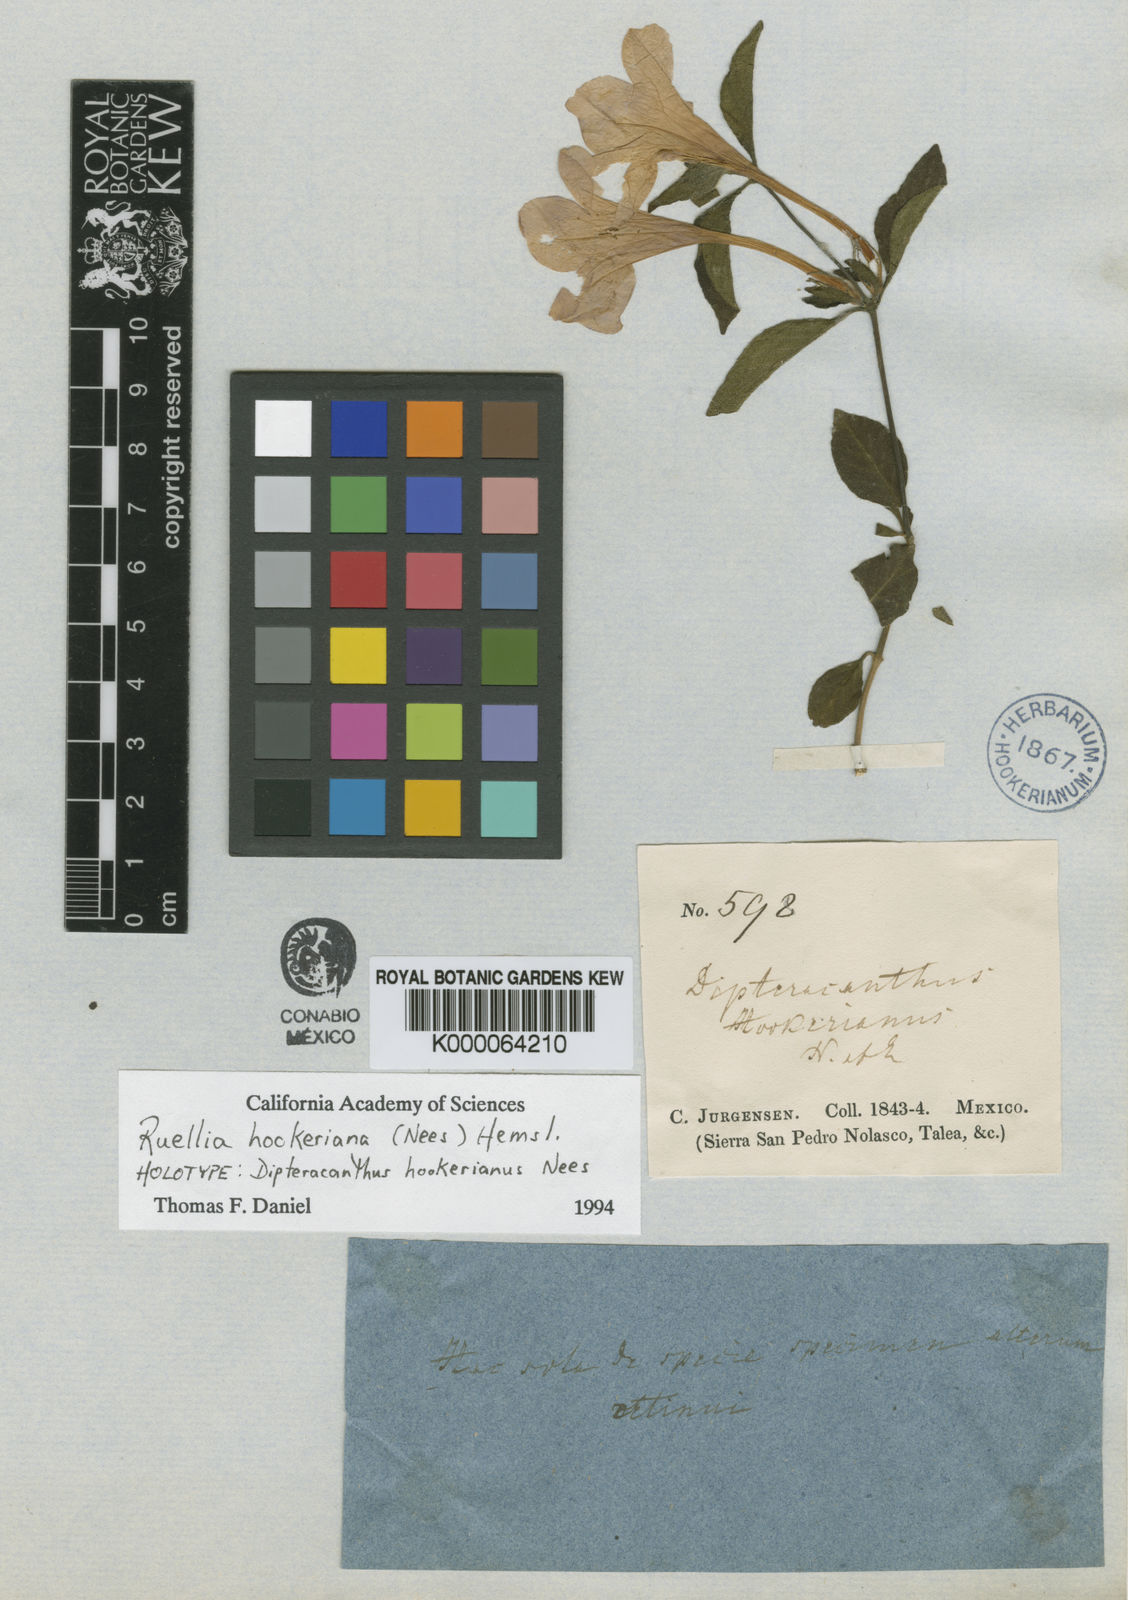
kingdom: Plantae
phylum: Tracheophyta
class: Magnoliopsida
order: Lamiales
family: Acanthaceae
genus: Ruellia
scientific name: Ruellia hookeriana
